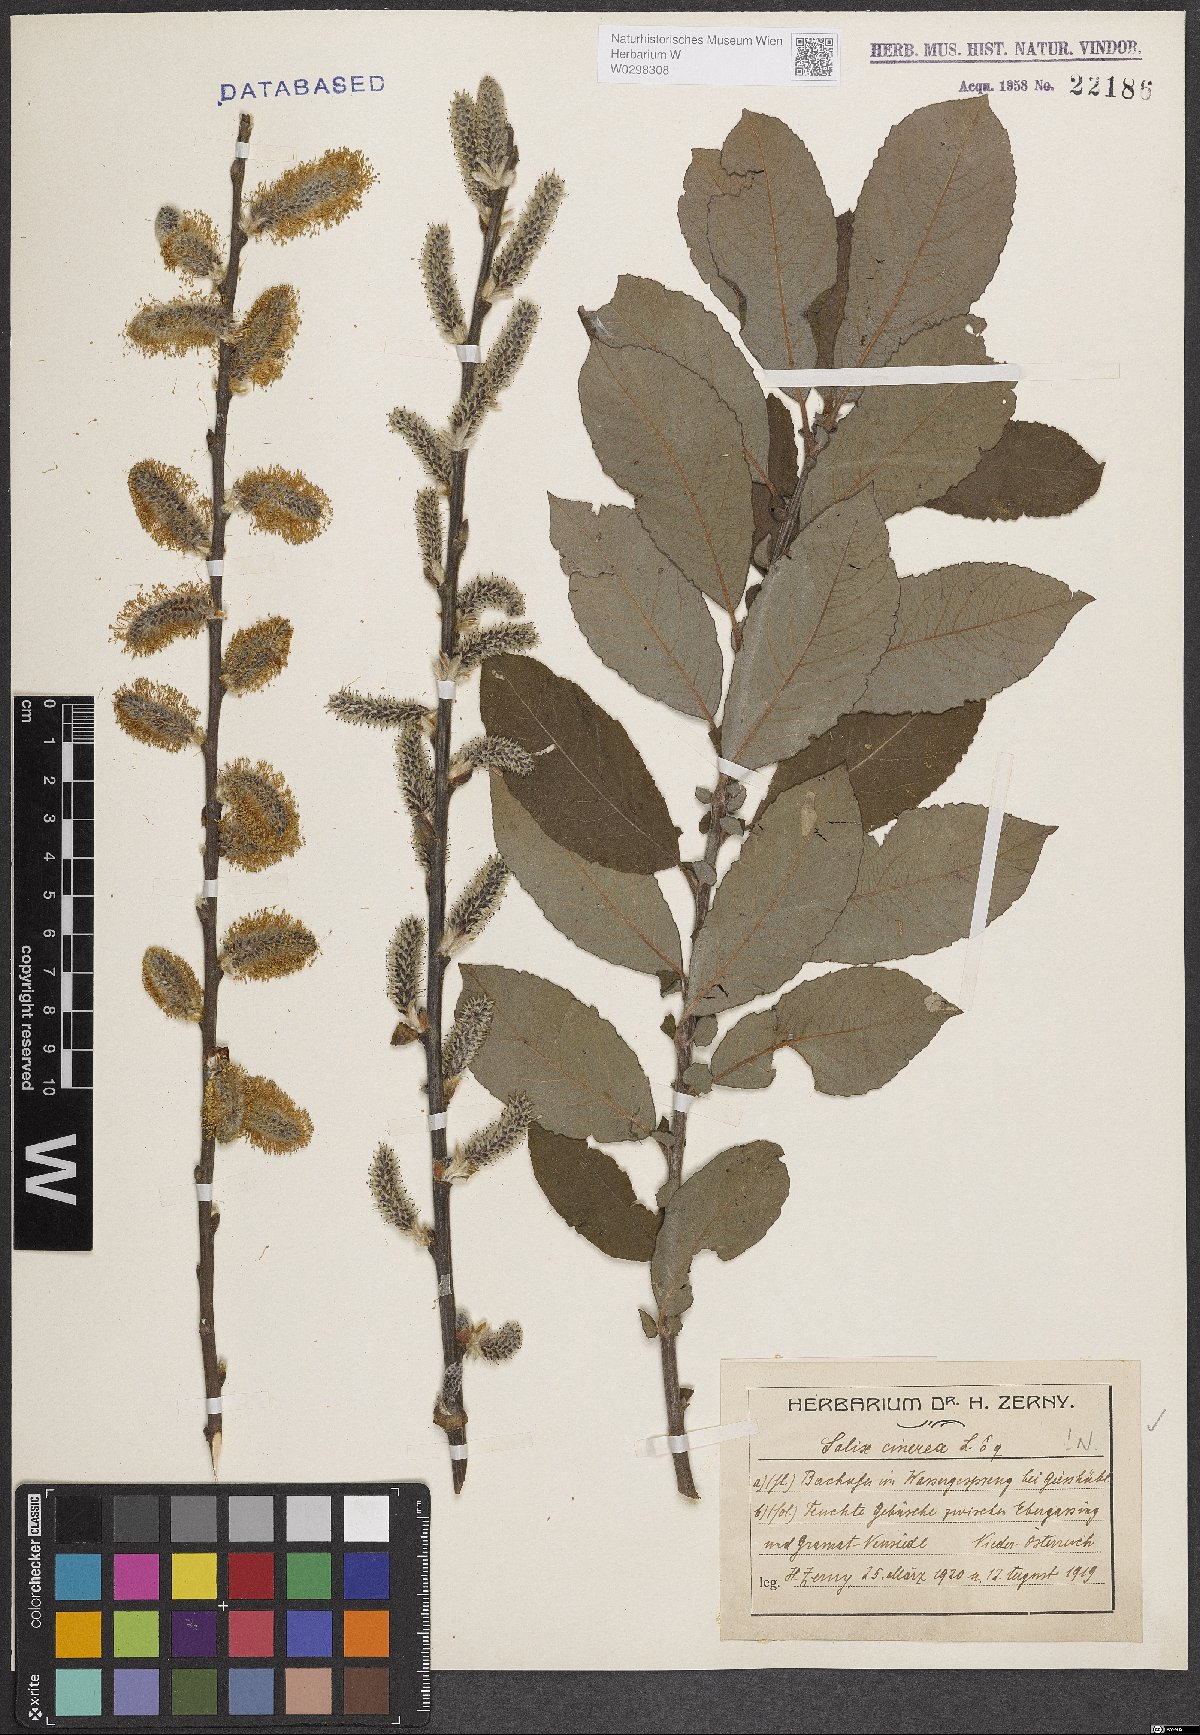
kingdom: Plantae
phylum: Tracheophyta
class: Magnoliopsida
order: Malpighiales
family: Salicaceae
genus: Salix
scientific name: Salix cinerea
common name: Common sallow
